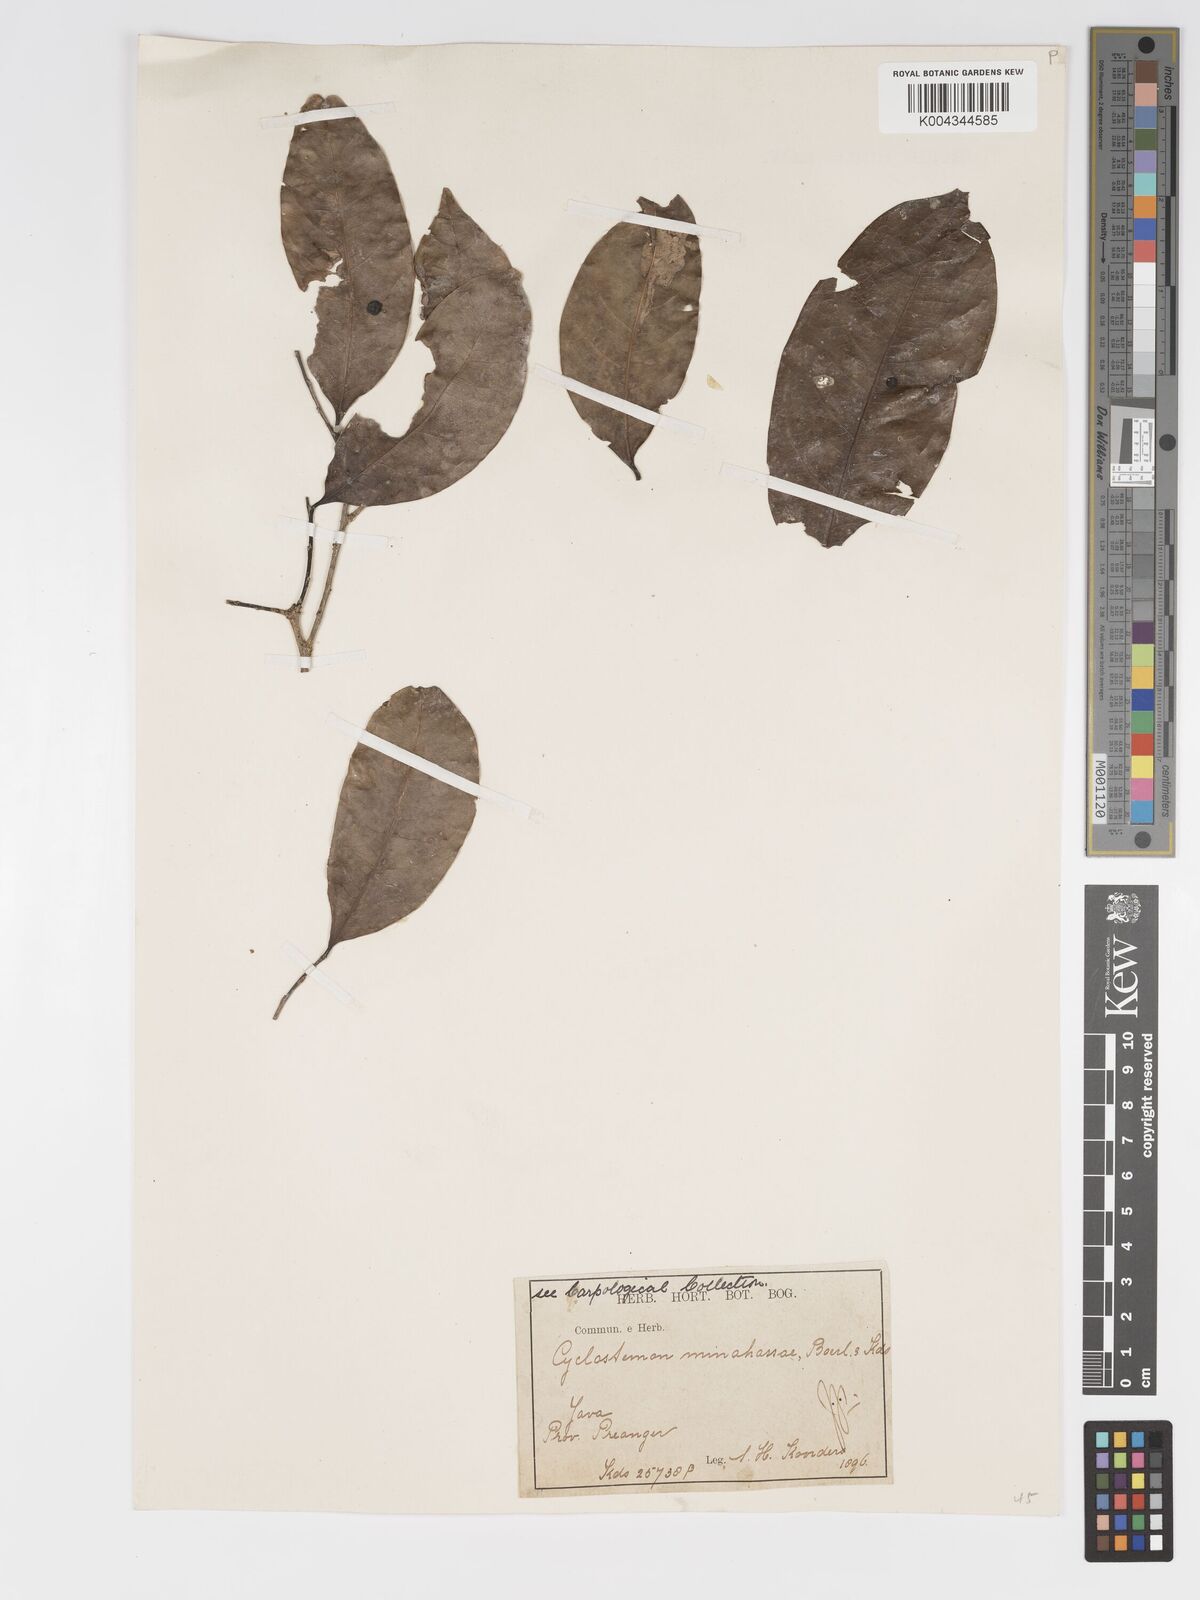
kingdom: Plantae
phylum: Tracheophyta
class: Magnoliopsida
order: Malpighiales
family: Putranjivaceae
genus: Drypetes
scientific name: Drypetes minahassae
